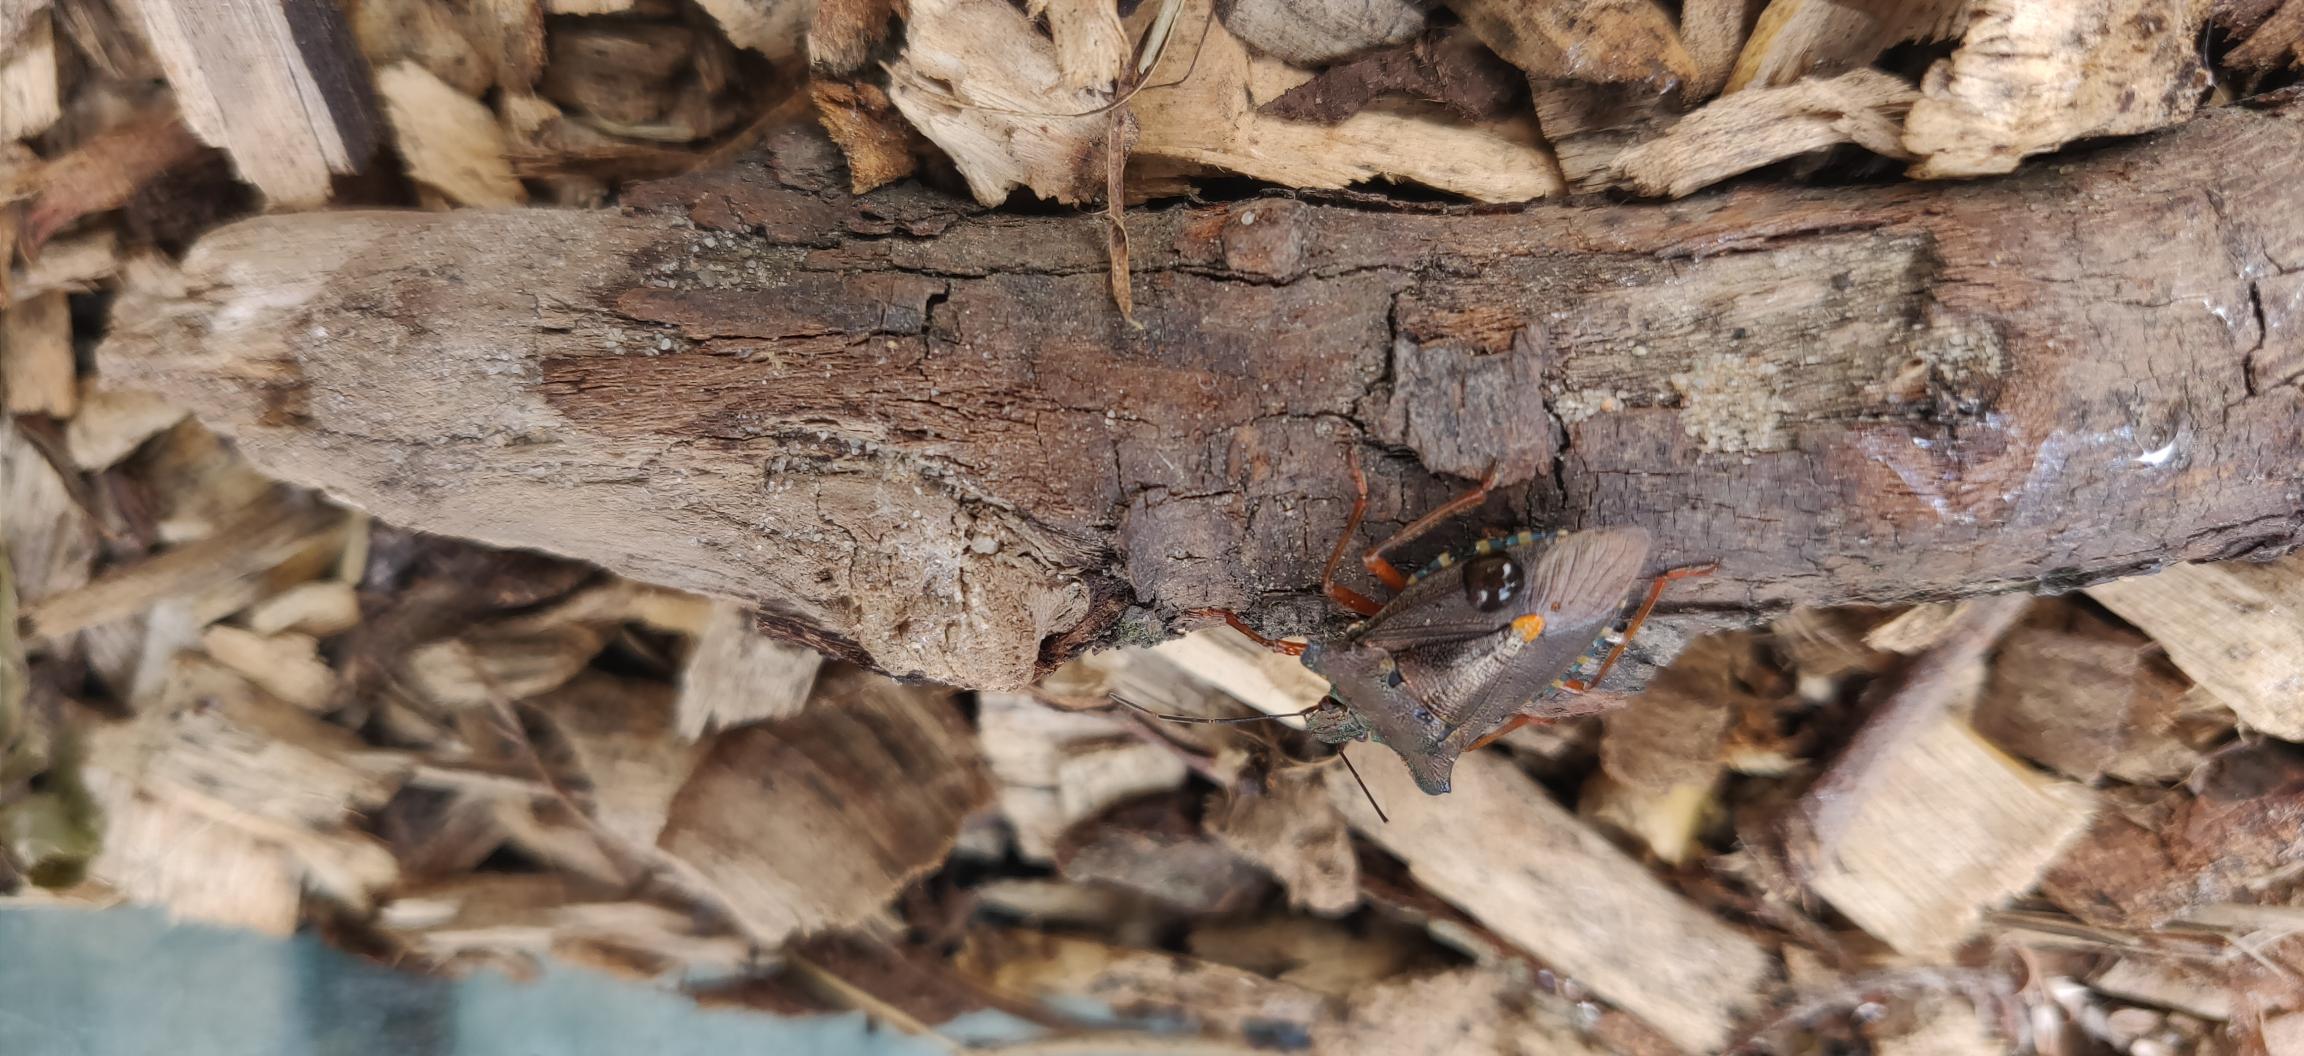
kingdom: Animalia
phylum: Arthropoda
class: Insecta
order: Hemiptera
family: Pentatomidae
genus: Pentatoma
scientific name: Pentatoma rufipes
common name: Rødbenet bredtæge
